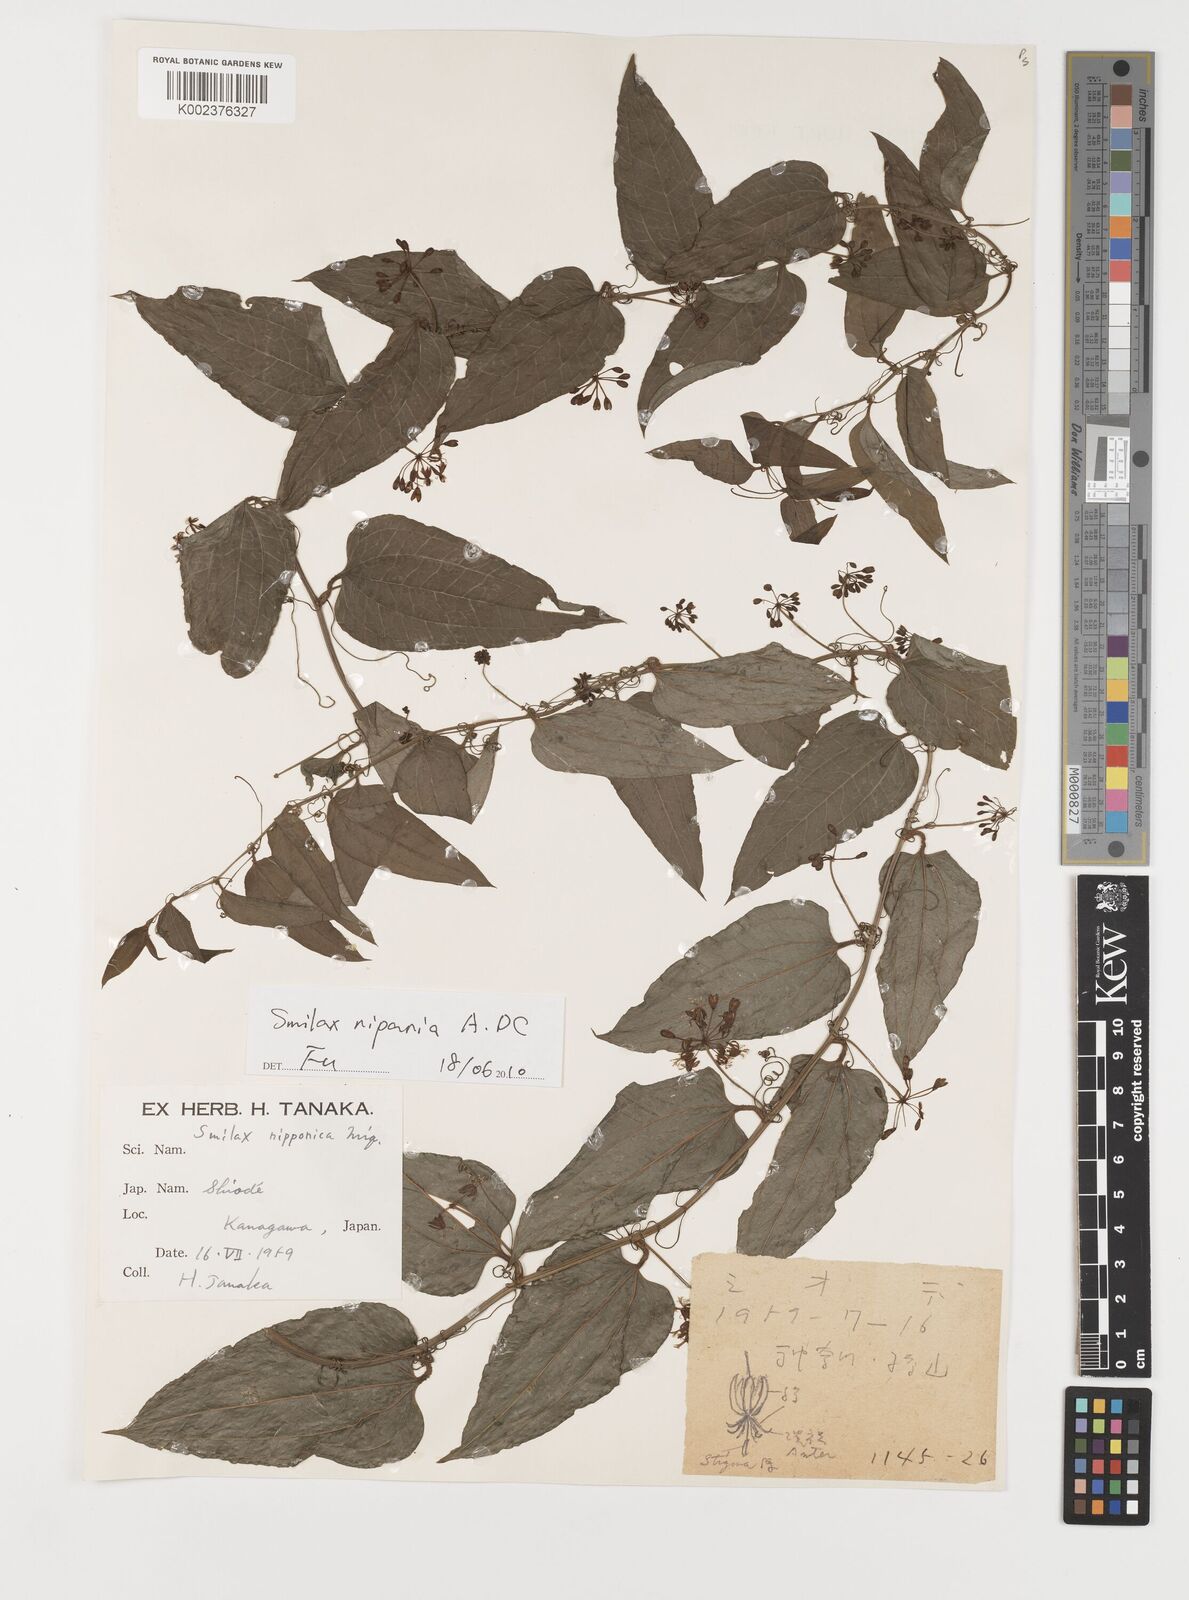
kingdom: Plantae
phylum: Tracheophyta
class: Liliopsida
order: Liliales
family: Smilacaceae
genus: Smilax
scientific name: Smilax nipponica
